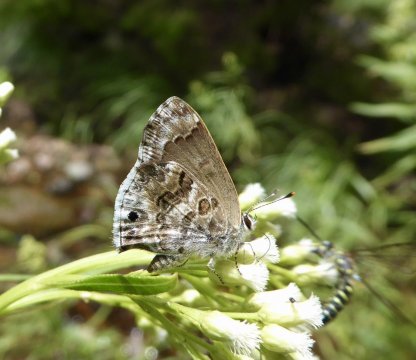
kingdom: Animalia
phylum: Arthropoda
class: Insecta
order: Lepidoptera
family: Lycaenidae
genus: Thecla
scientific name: Thecla cestri
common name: Tailless Scrub-Hairstreak
